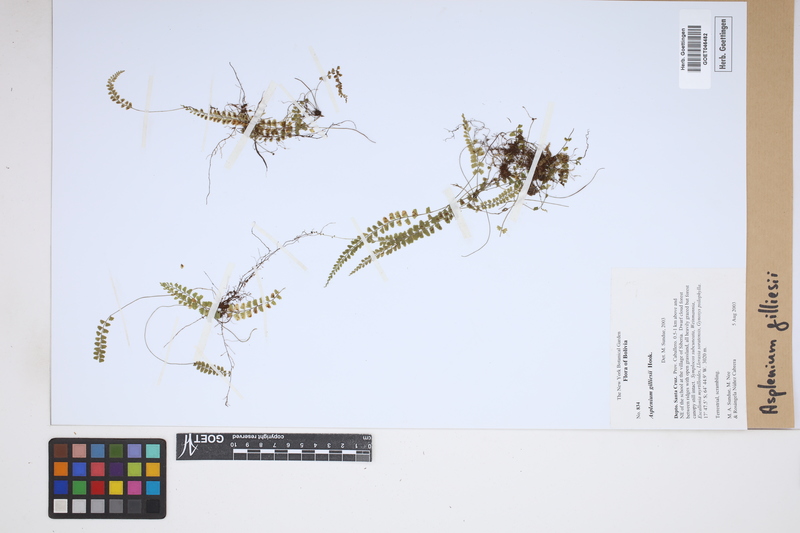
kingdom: Plantae
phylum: Tracheophyta
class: Polypodiopsida
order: Polypodiales
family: Aspleniaceae
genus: Asplenium
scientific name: Asplenium gilliesii
